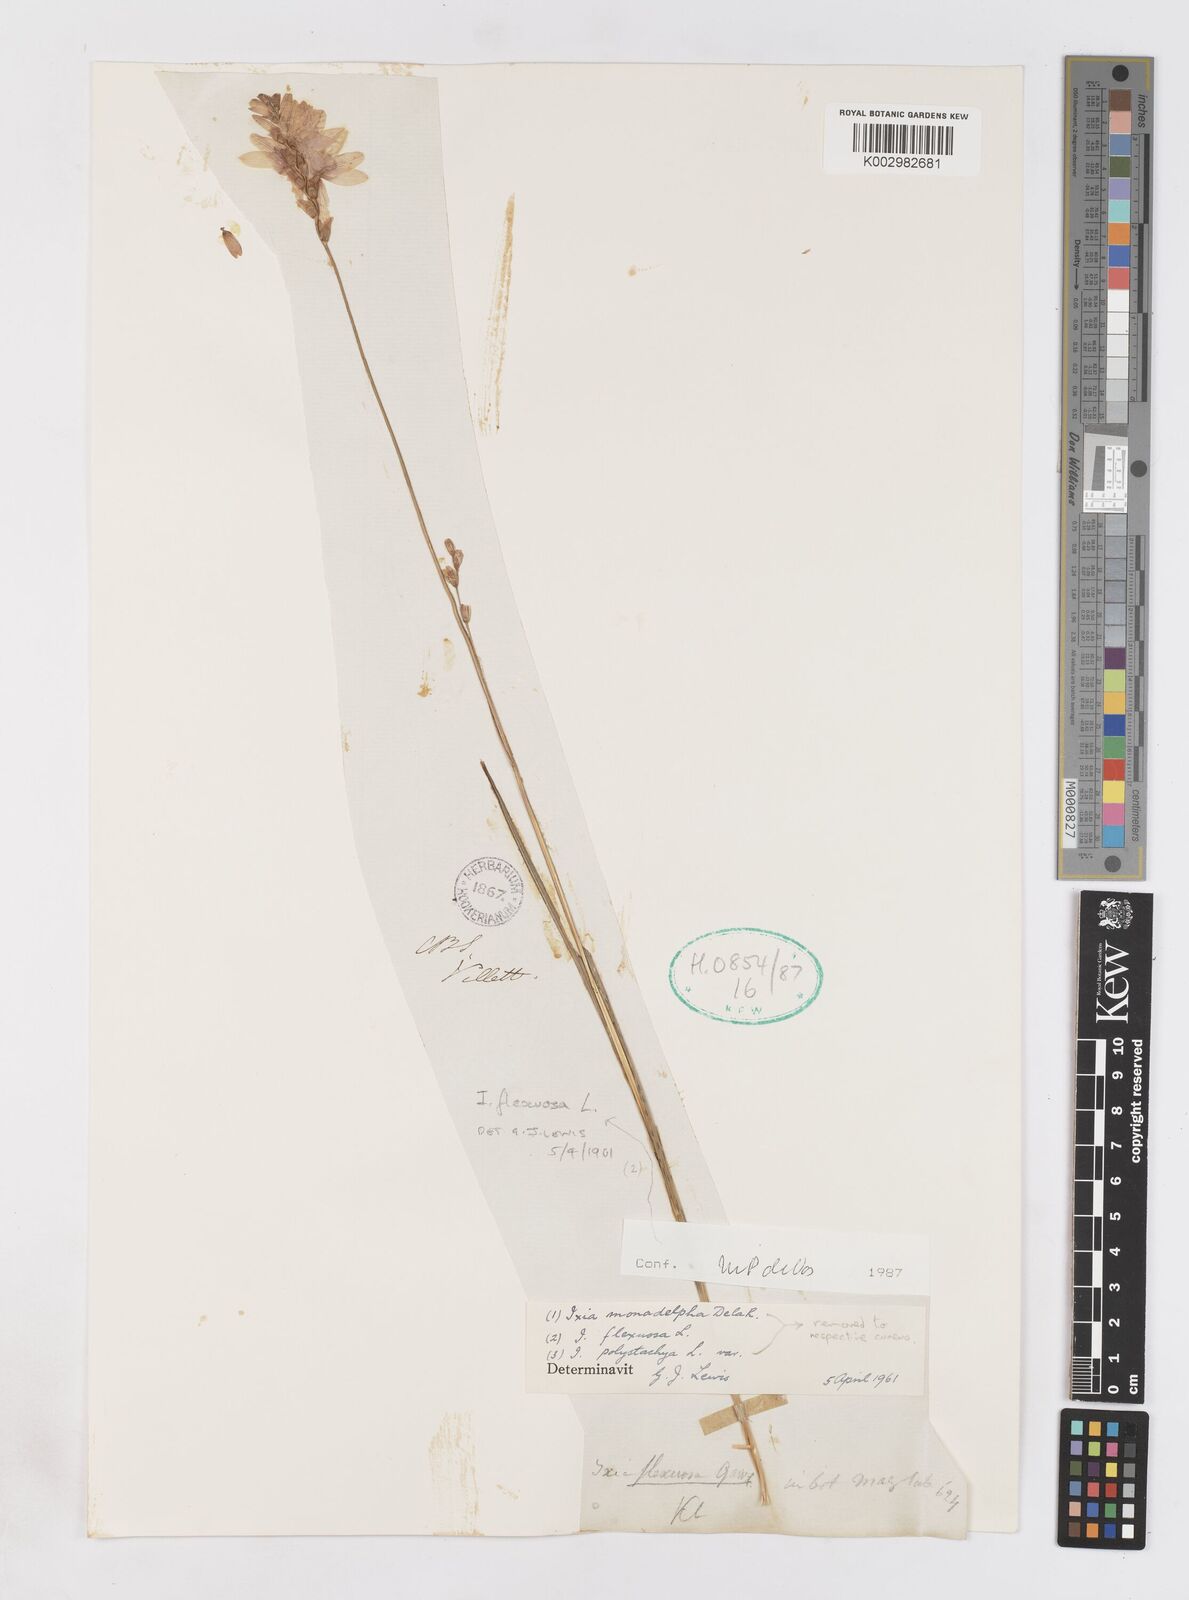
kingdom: Plantae
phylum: Tracheophyta
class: Liliopsida
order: Asparagales
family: Iridaceae
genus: Ixia
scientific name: Ixia flexuosa
